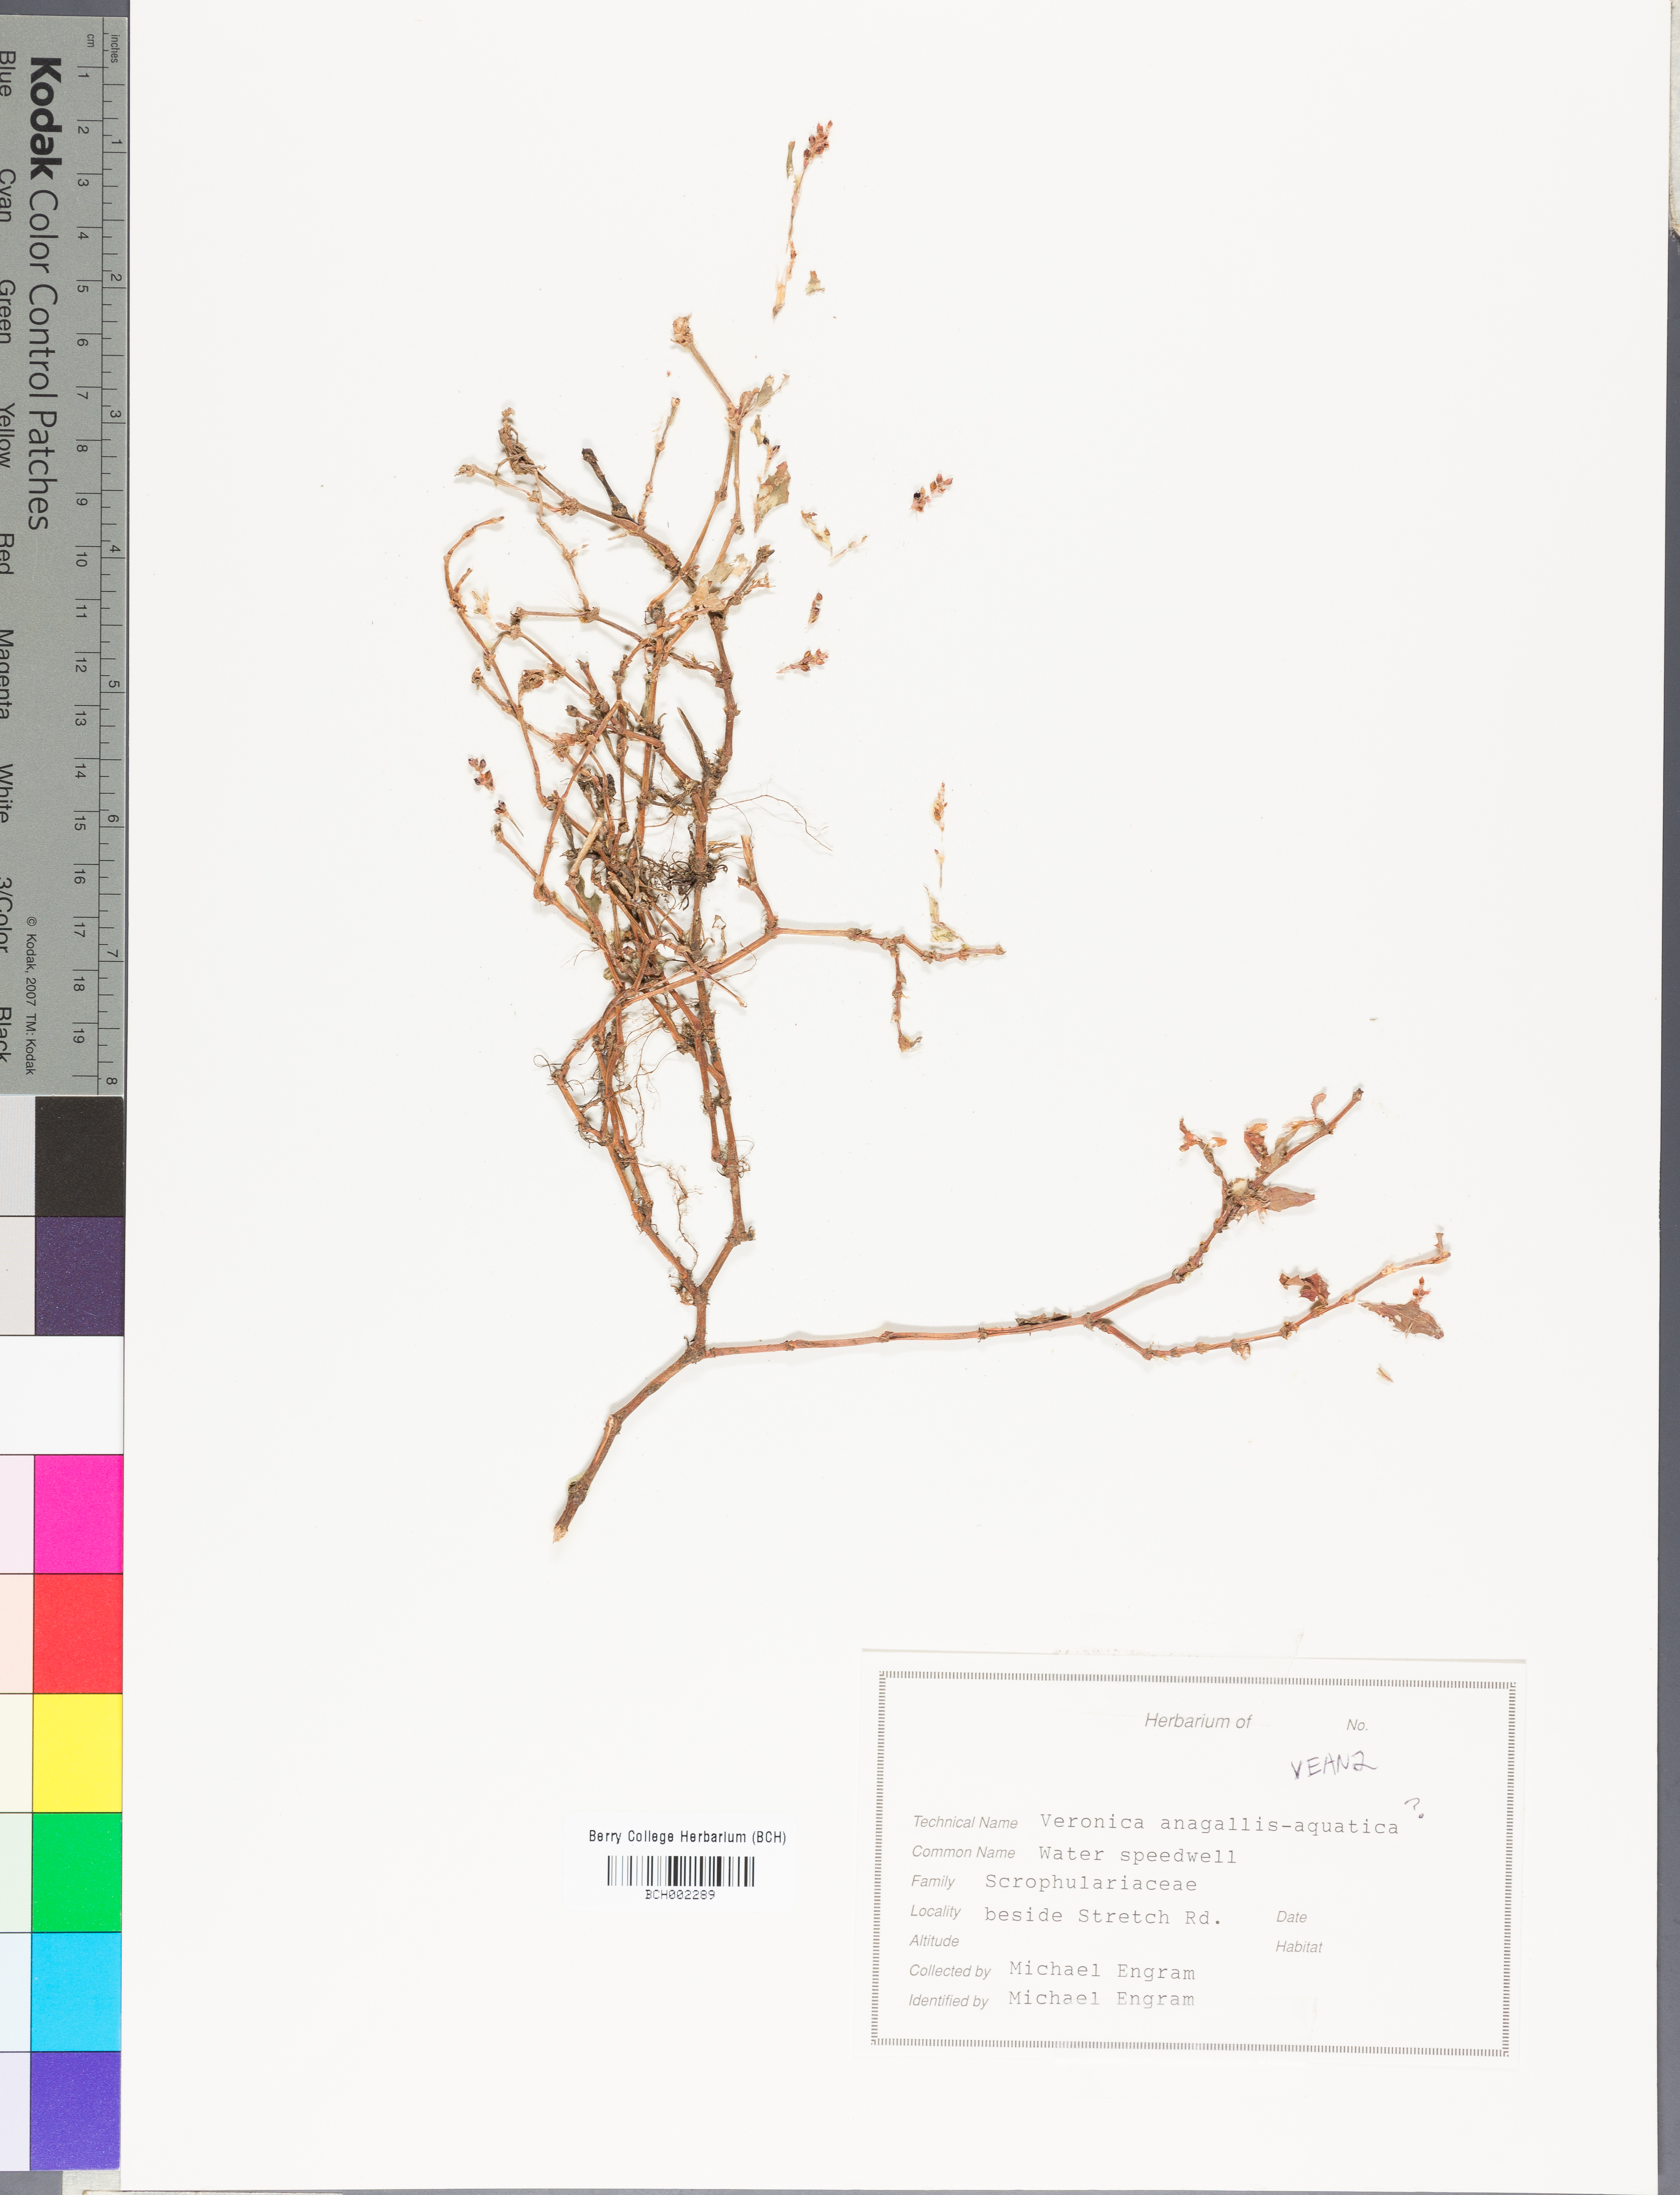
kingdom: Plantae
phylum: Tracheophyta
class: Magnoliopsida
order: Lamiales
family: Plantaginaceae
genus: Veronica
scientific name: Veronica anagallis-aquatica
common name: Water speedwell
